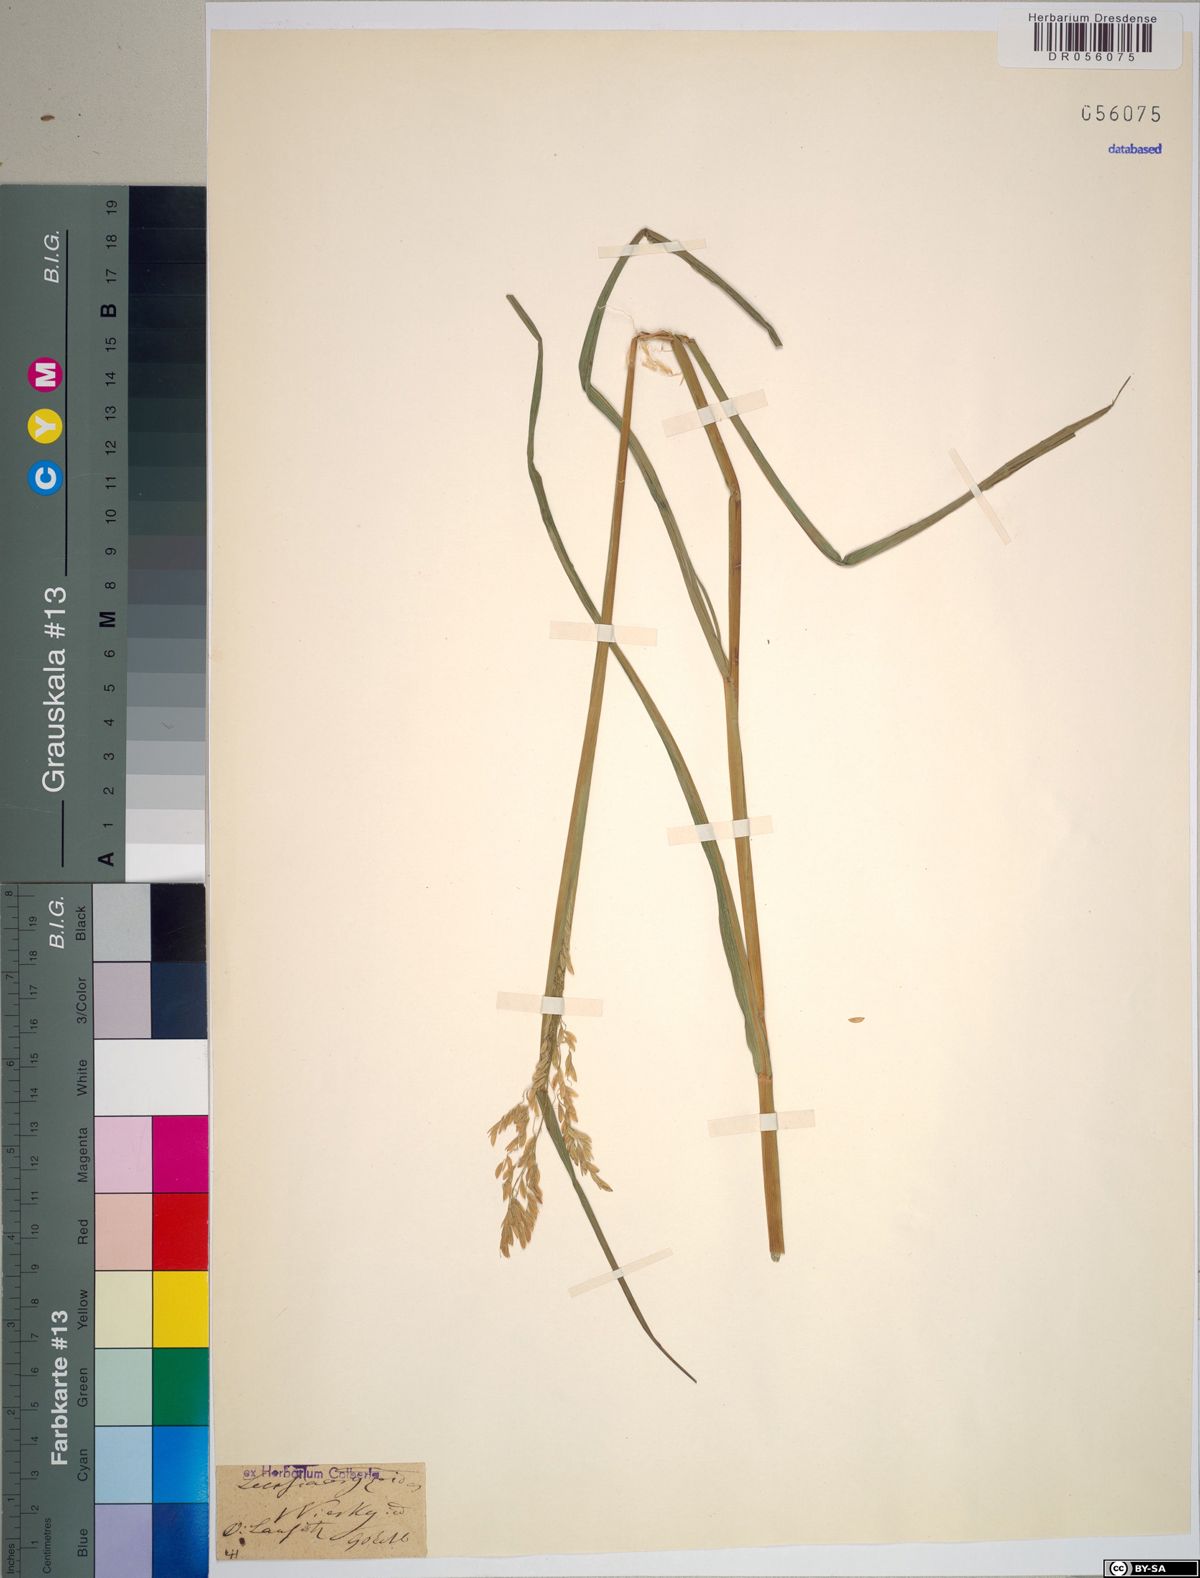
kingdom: Plantae
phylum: Tracheophyta
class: Liliopsida
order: Poales
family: Poaceae
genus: Leersia
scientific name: Leersia oryzoides
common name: Cut-grass
